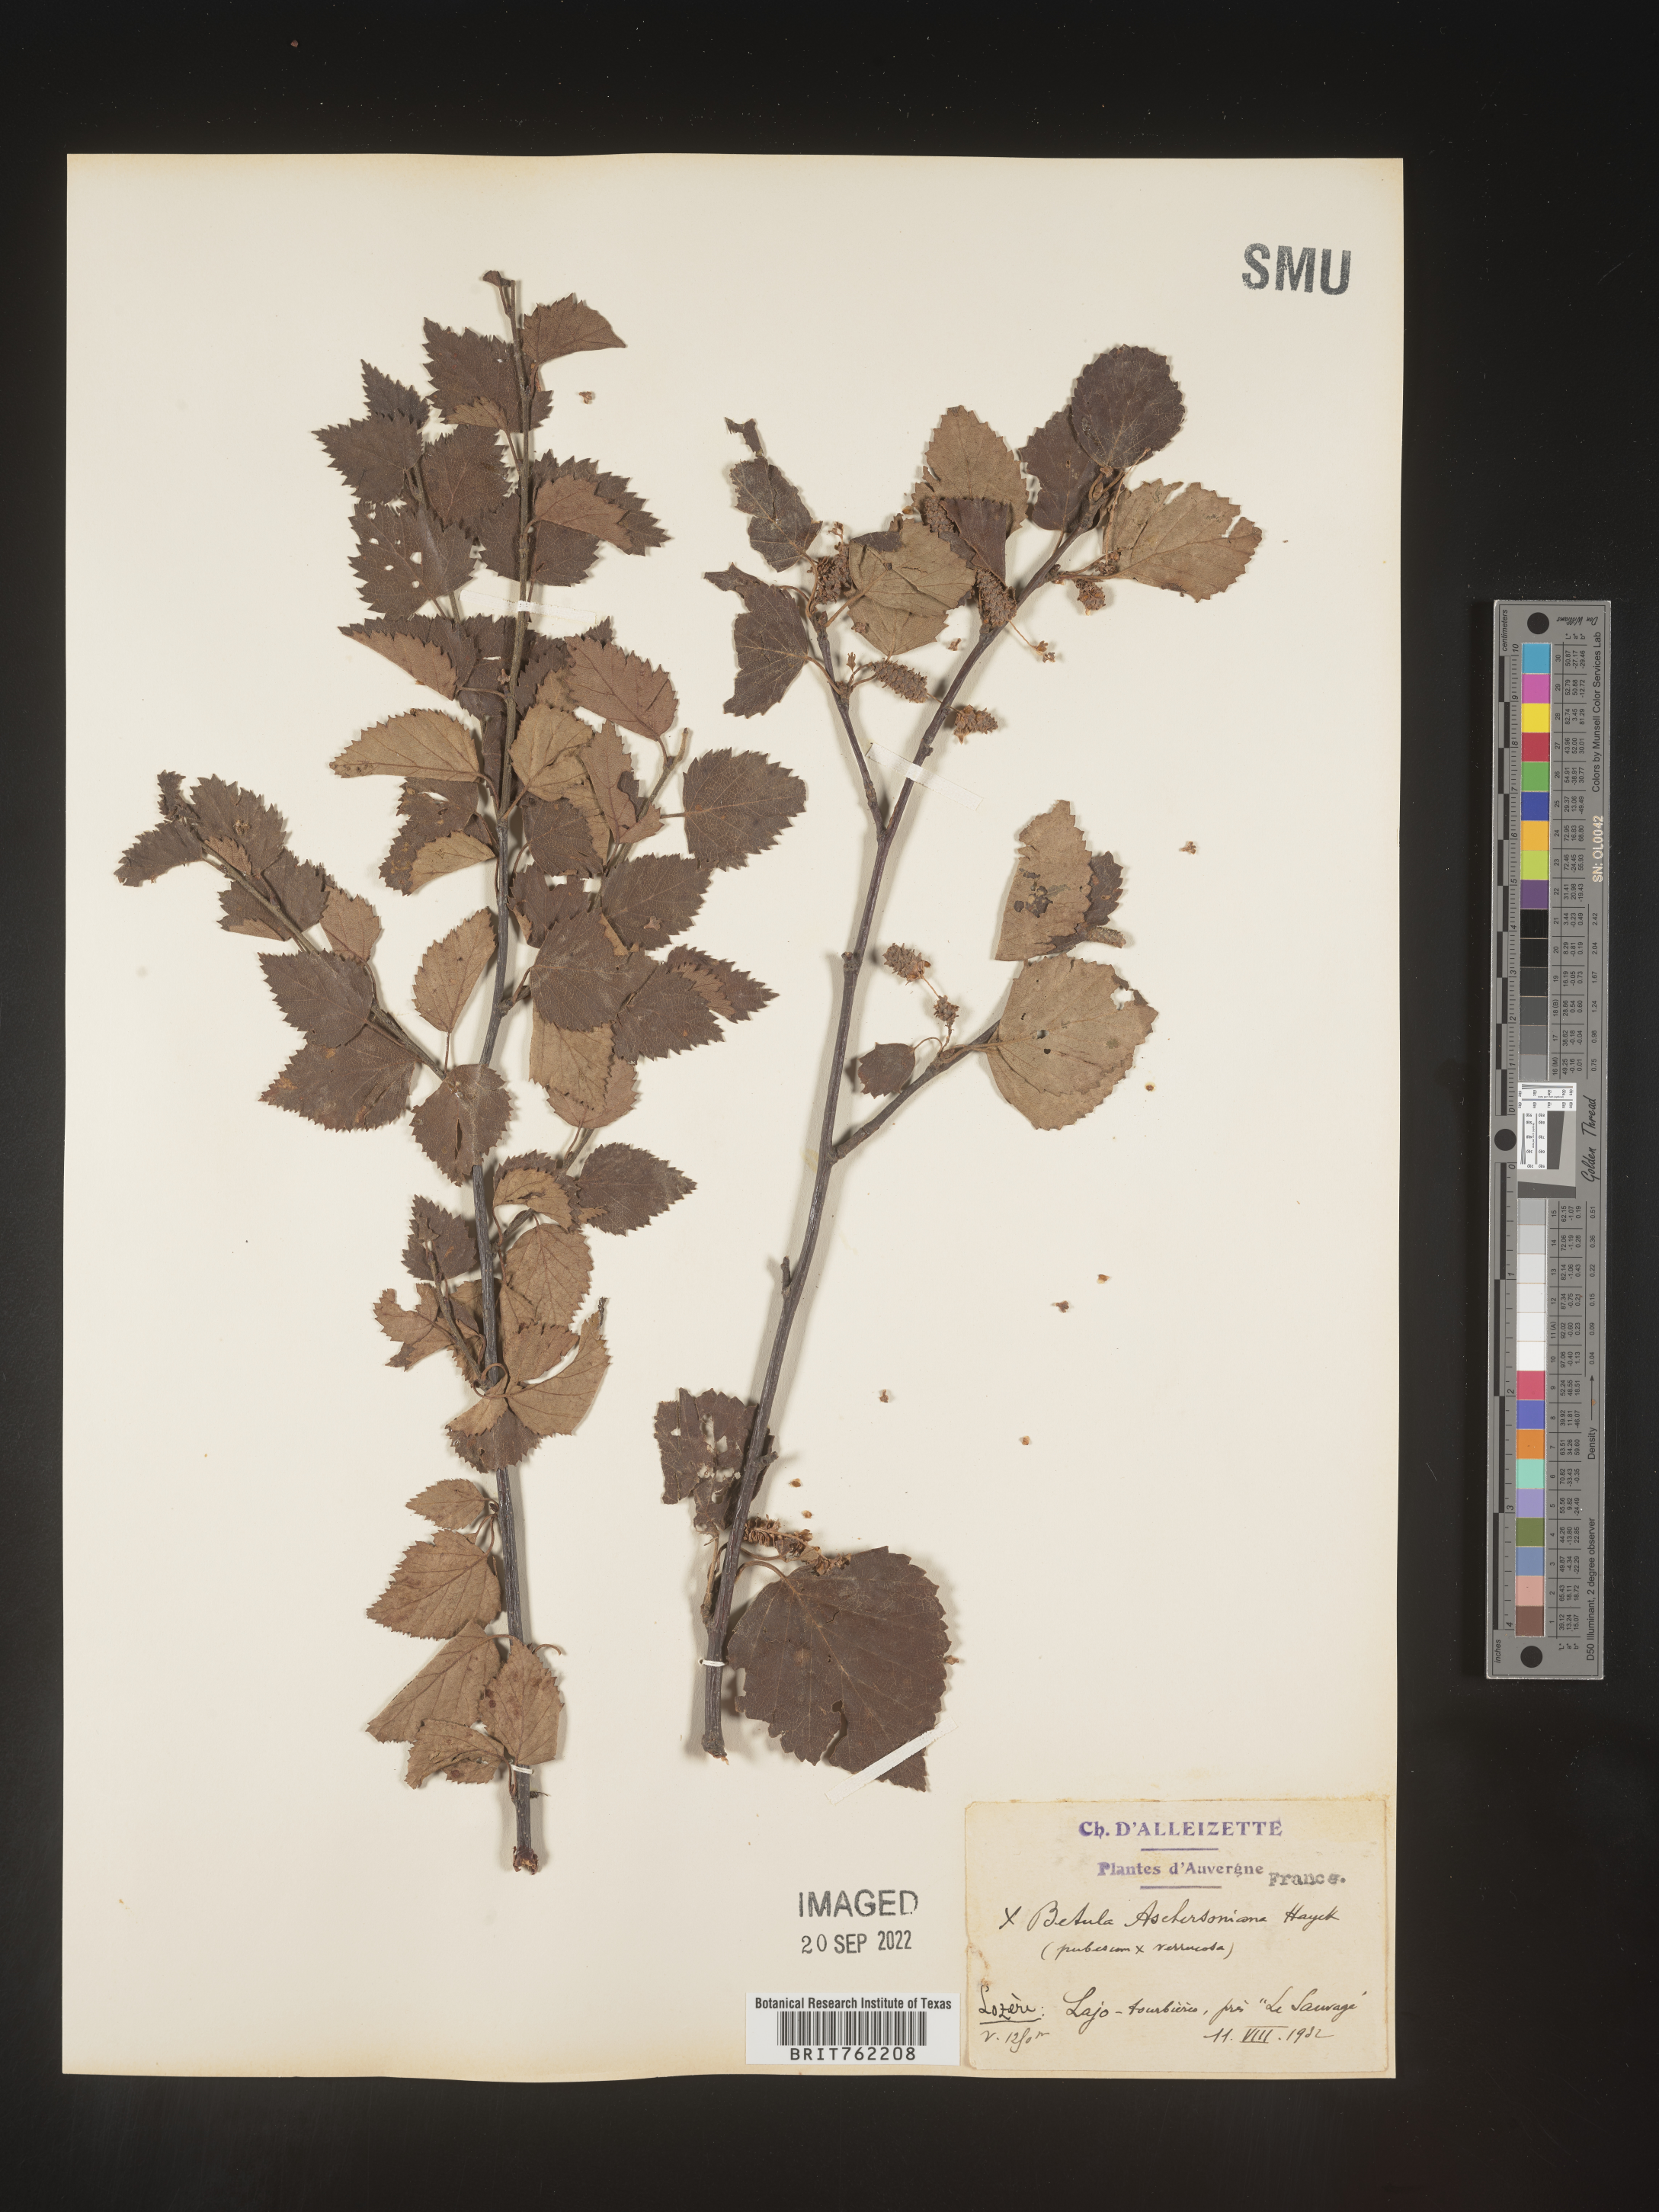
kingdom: Plantae
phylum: Tracheophyta
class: Magnoliopsida
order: Fagales
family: Betulaceae
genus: Betula
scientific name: Betula
